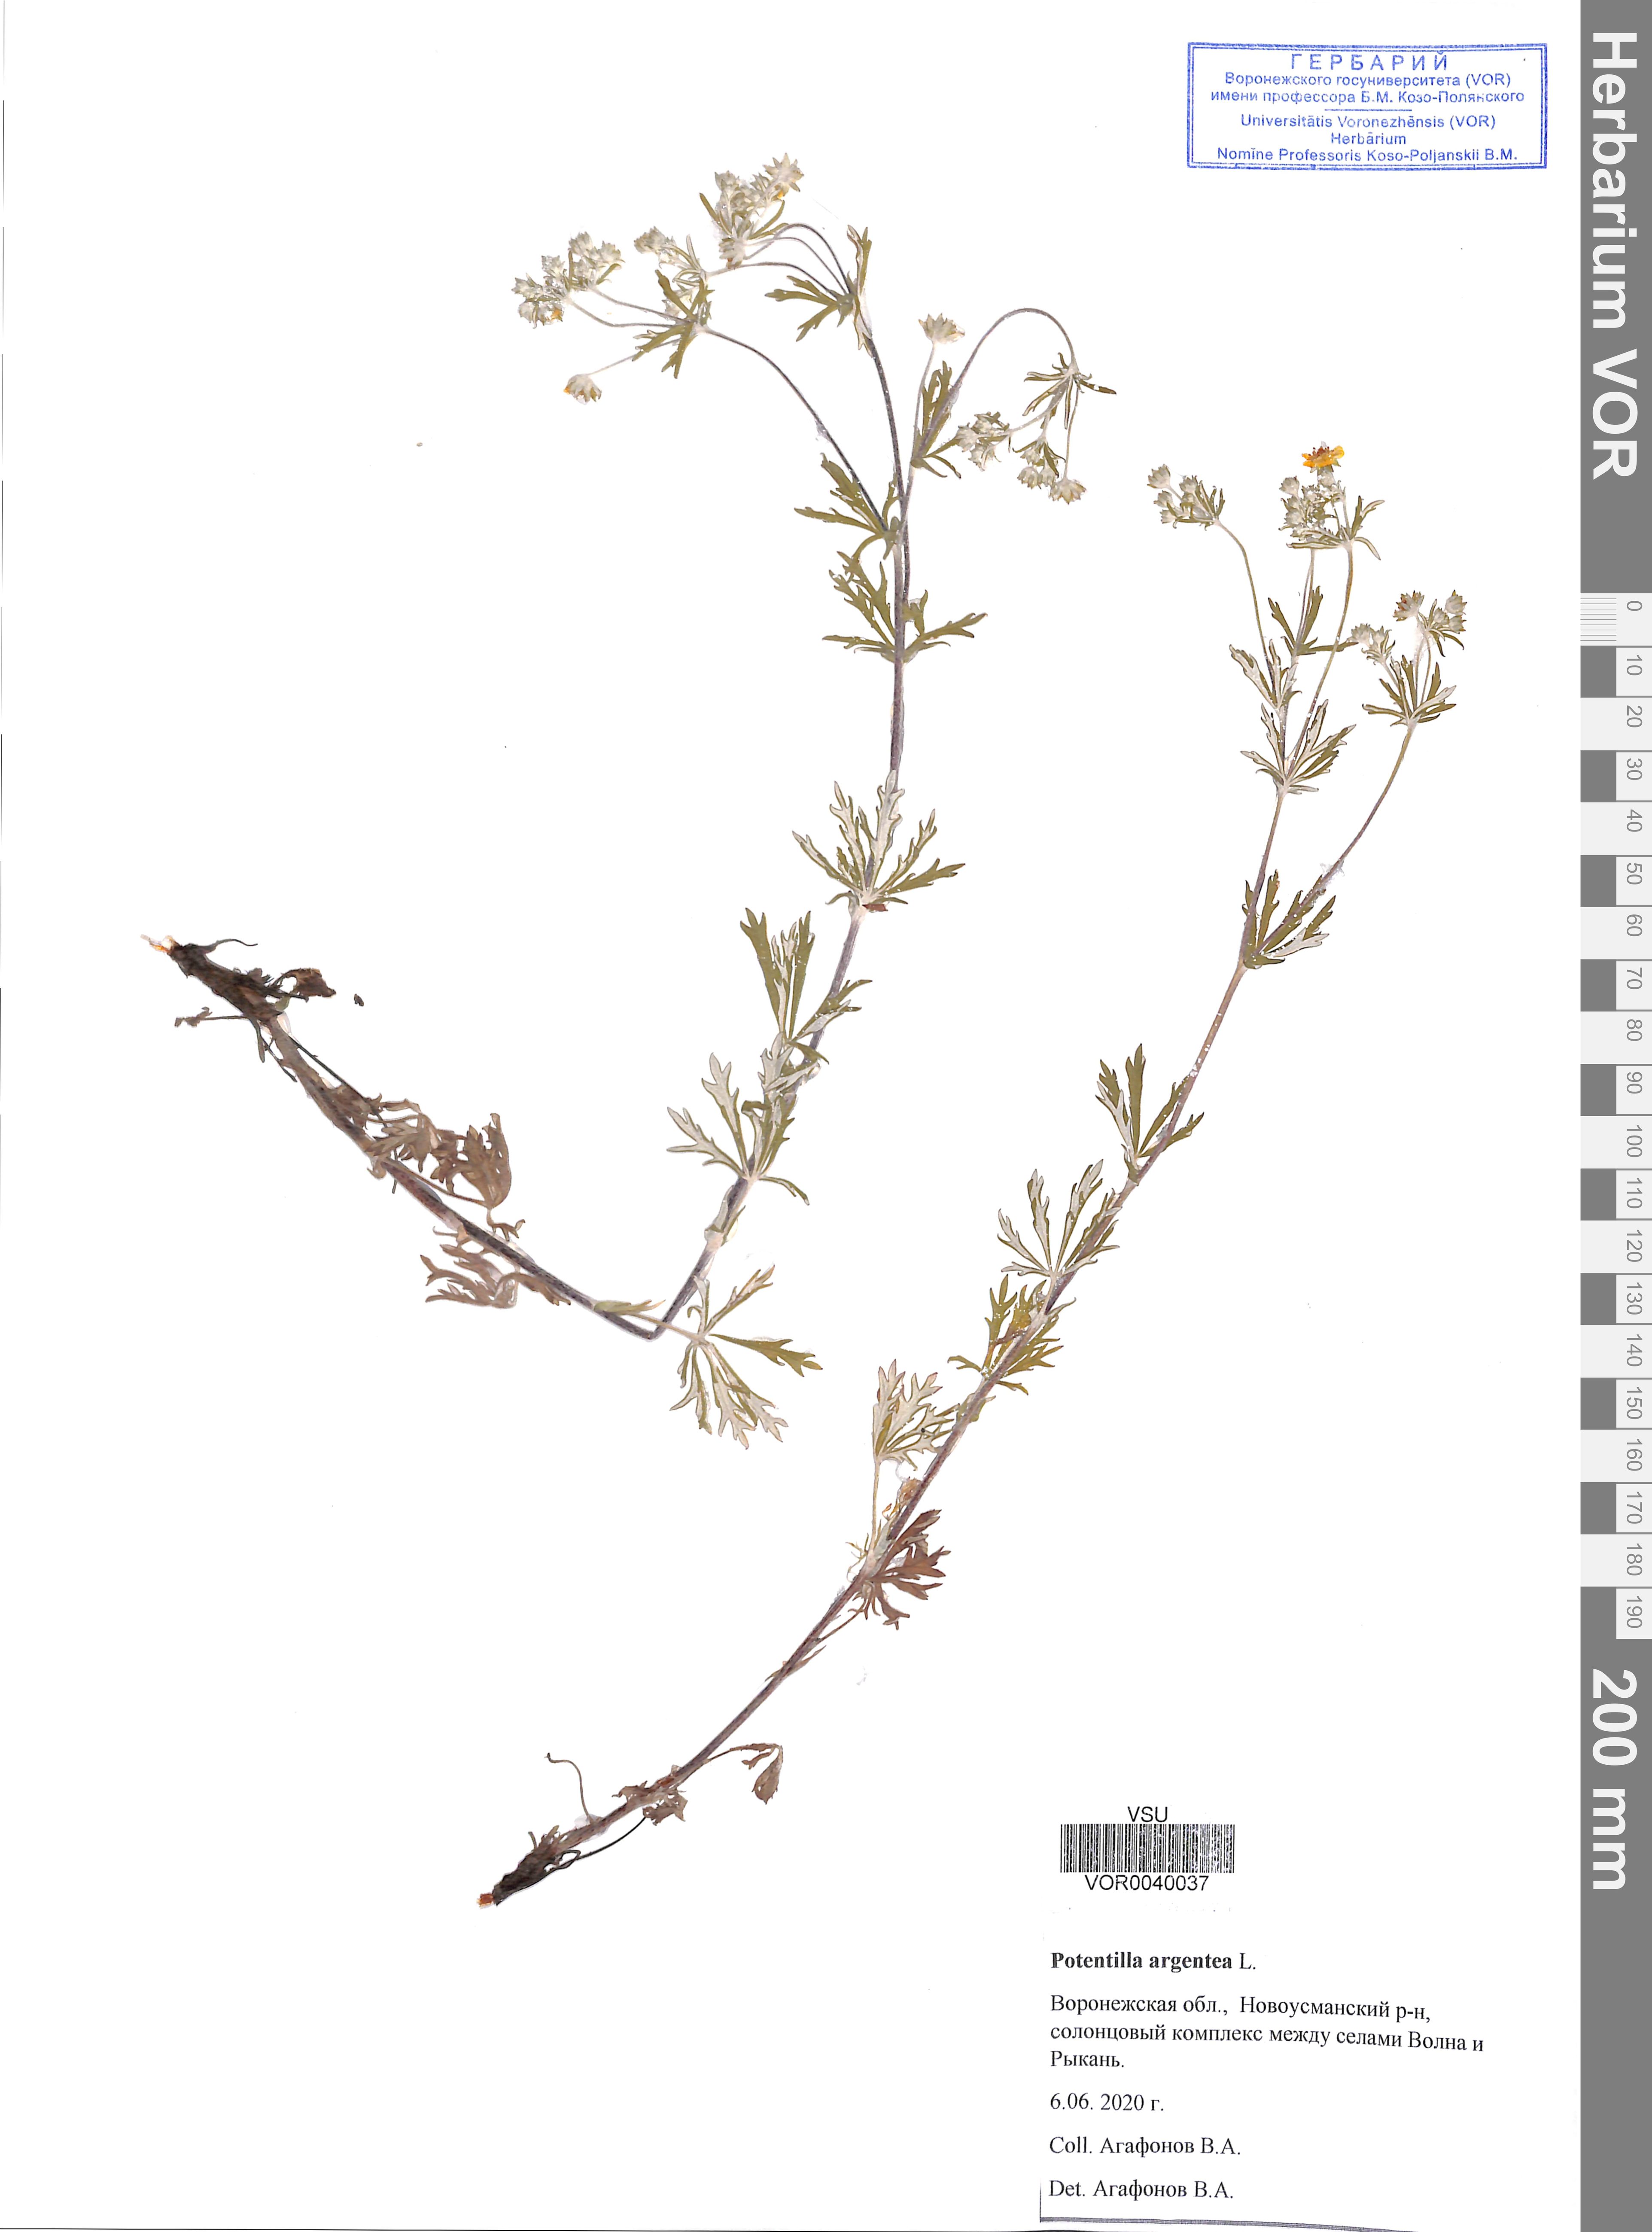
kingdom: Plantae
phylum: Tracheophyta
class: Magnoliopsida
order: Rosales
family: Rosaceae
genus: Potentilla
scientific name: Potentilla argentea
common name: Hoary cinquefoil
